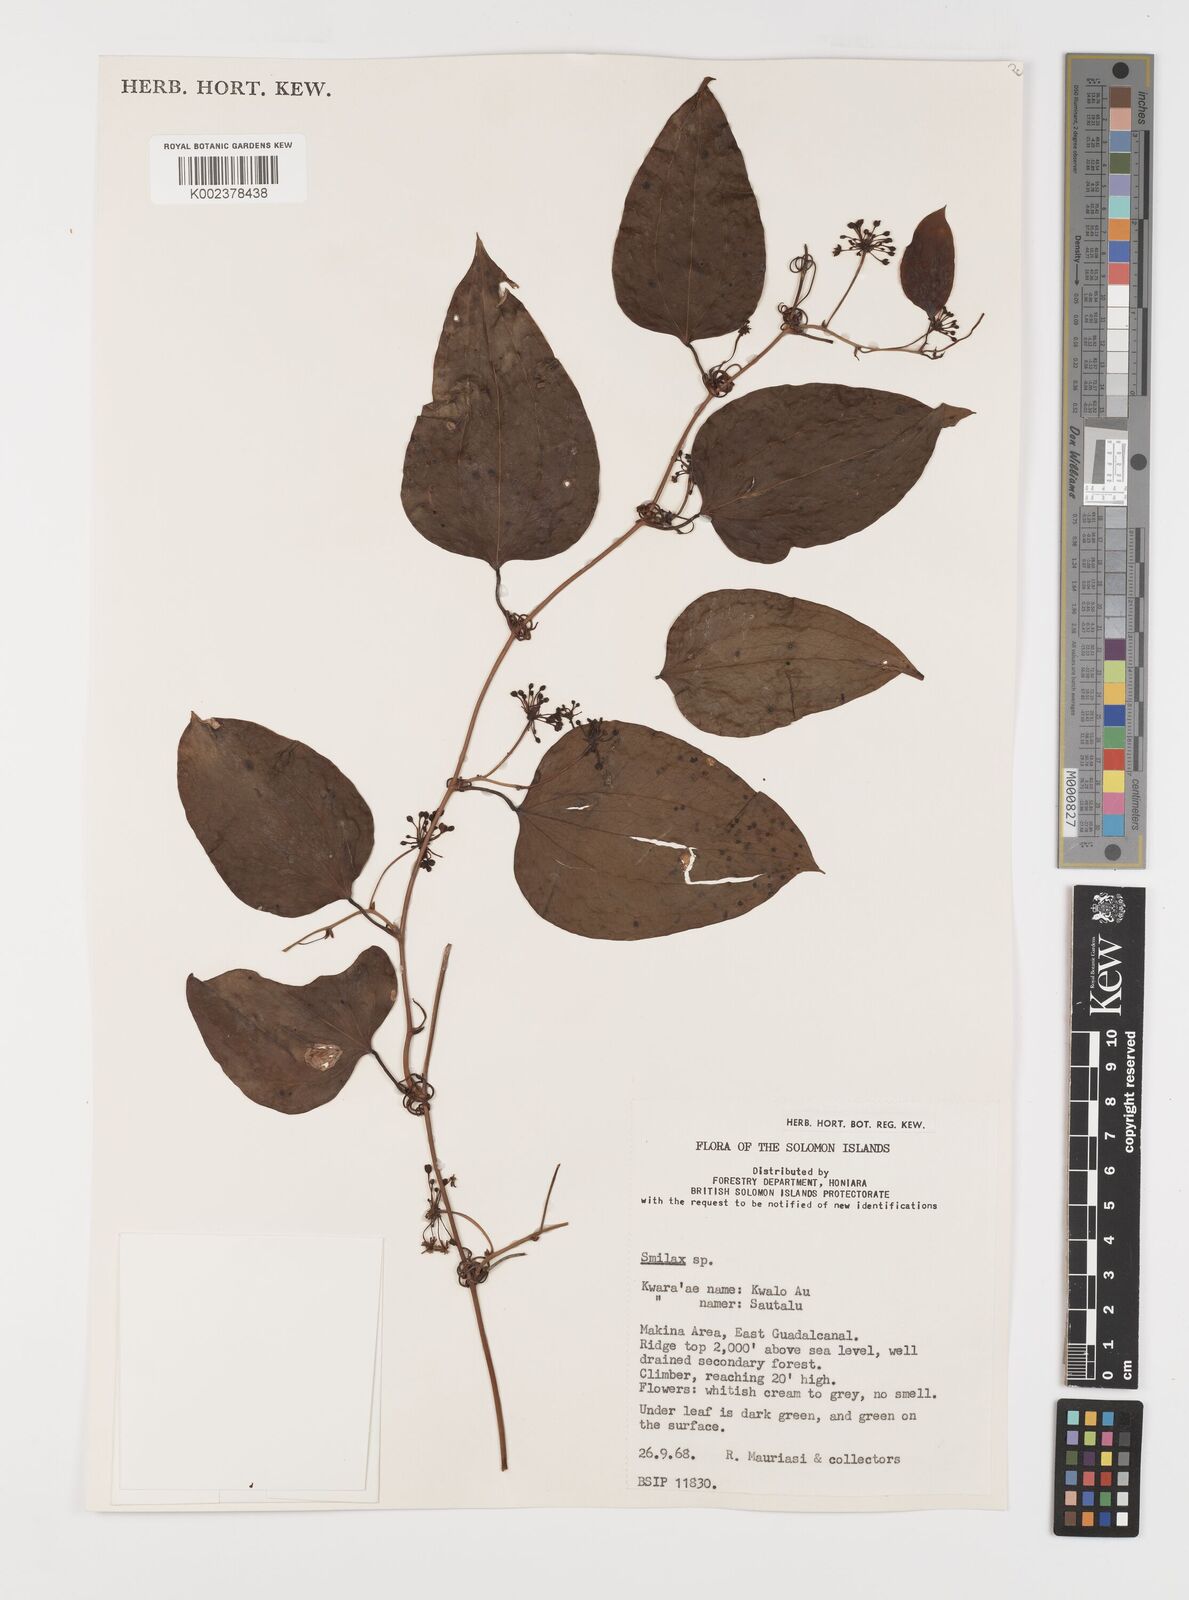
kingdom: Plantae
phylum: Tracheophyta
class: Liliopsida
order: Liliales
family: Smilacaceae
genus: Smilax
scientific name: Smilax
